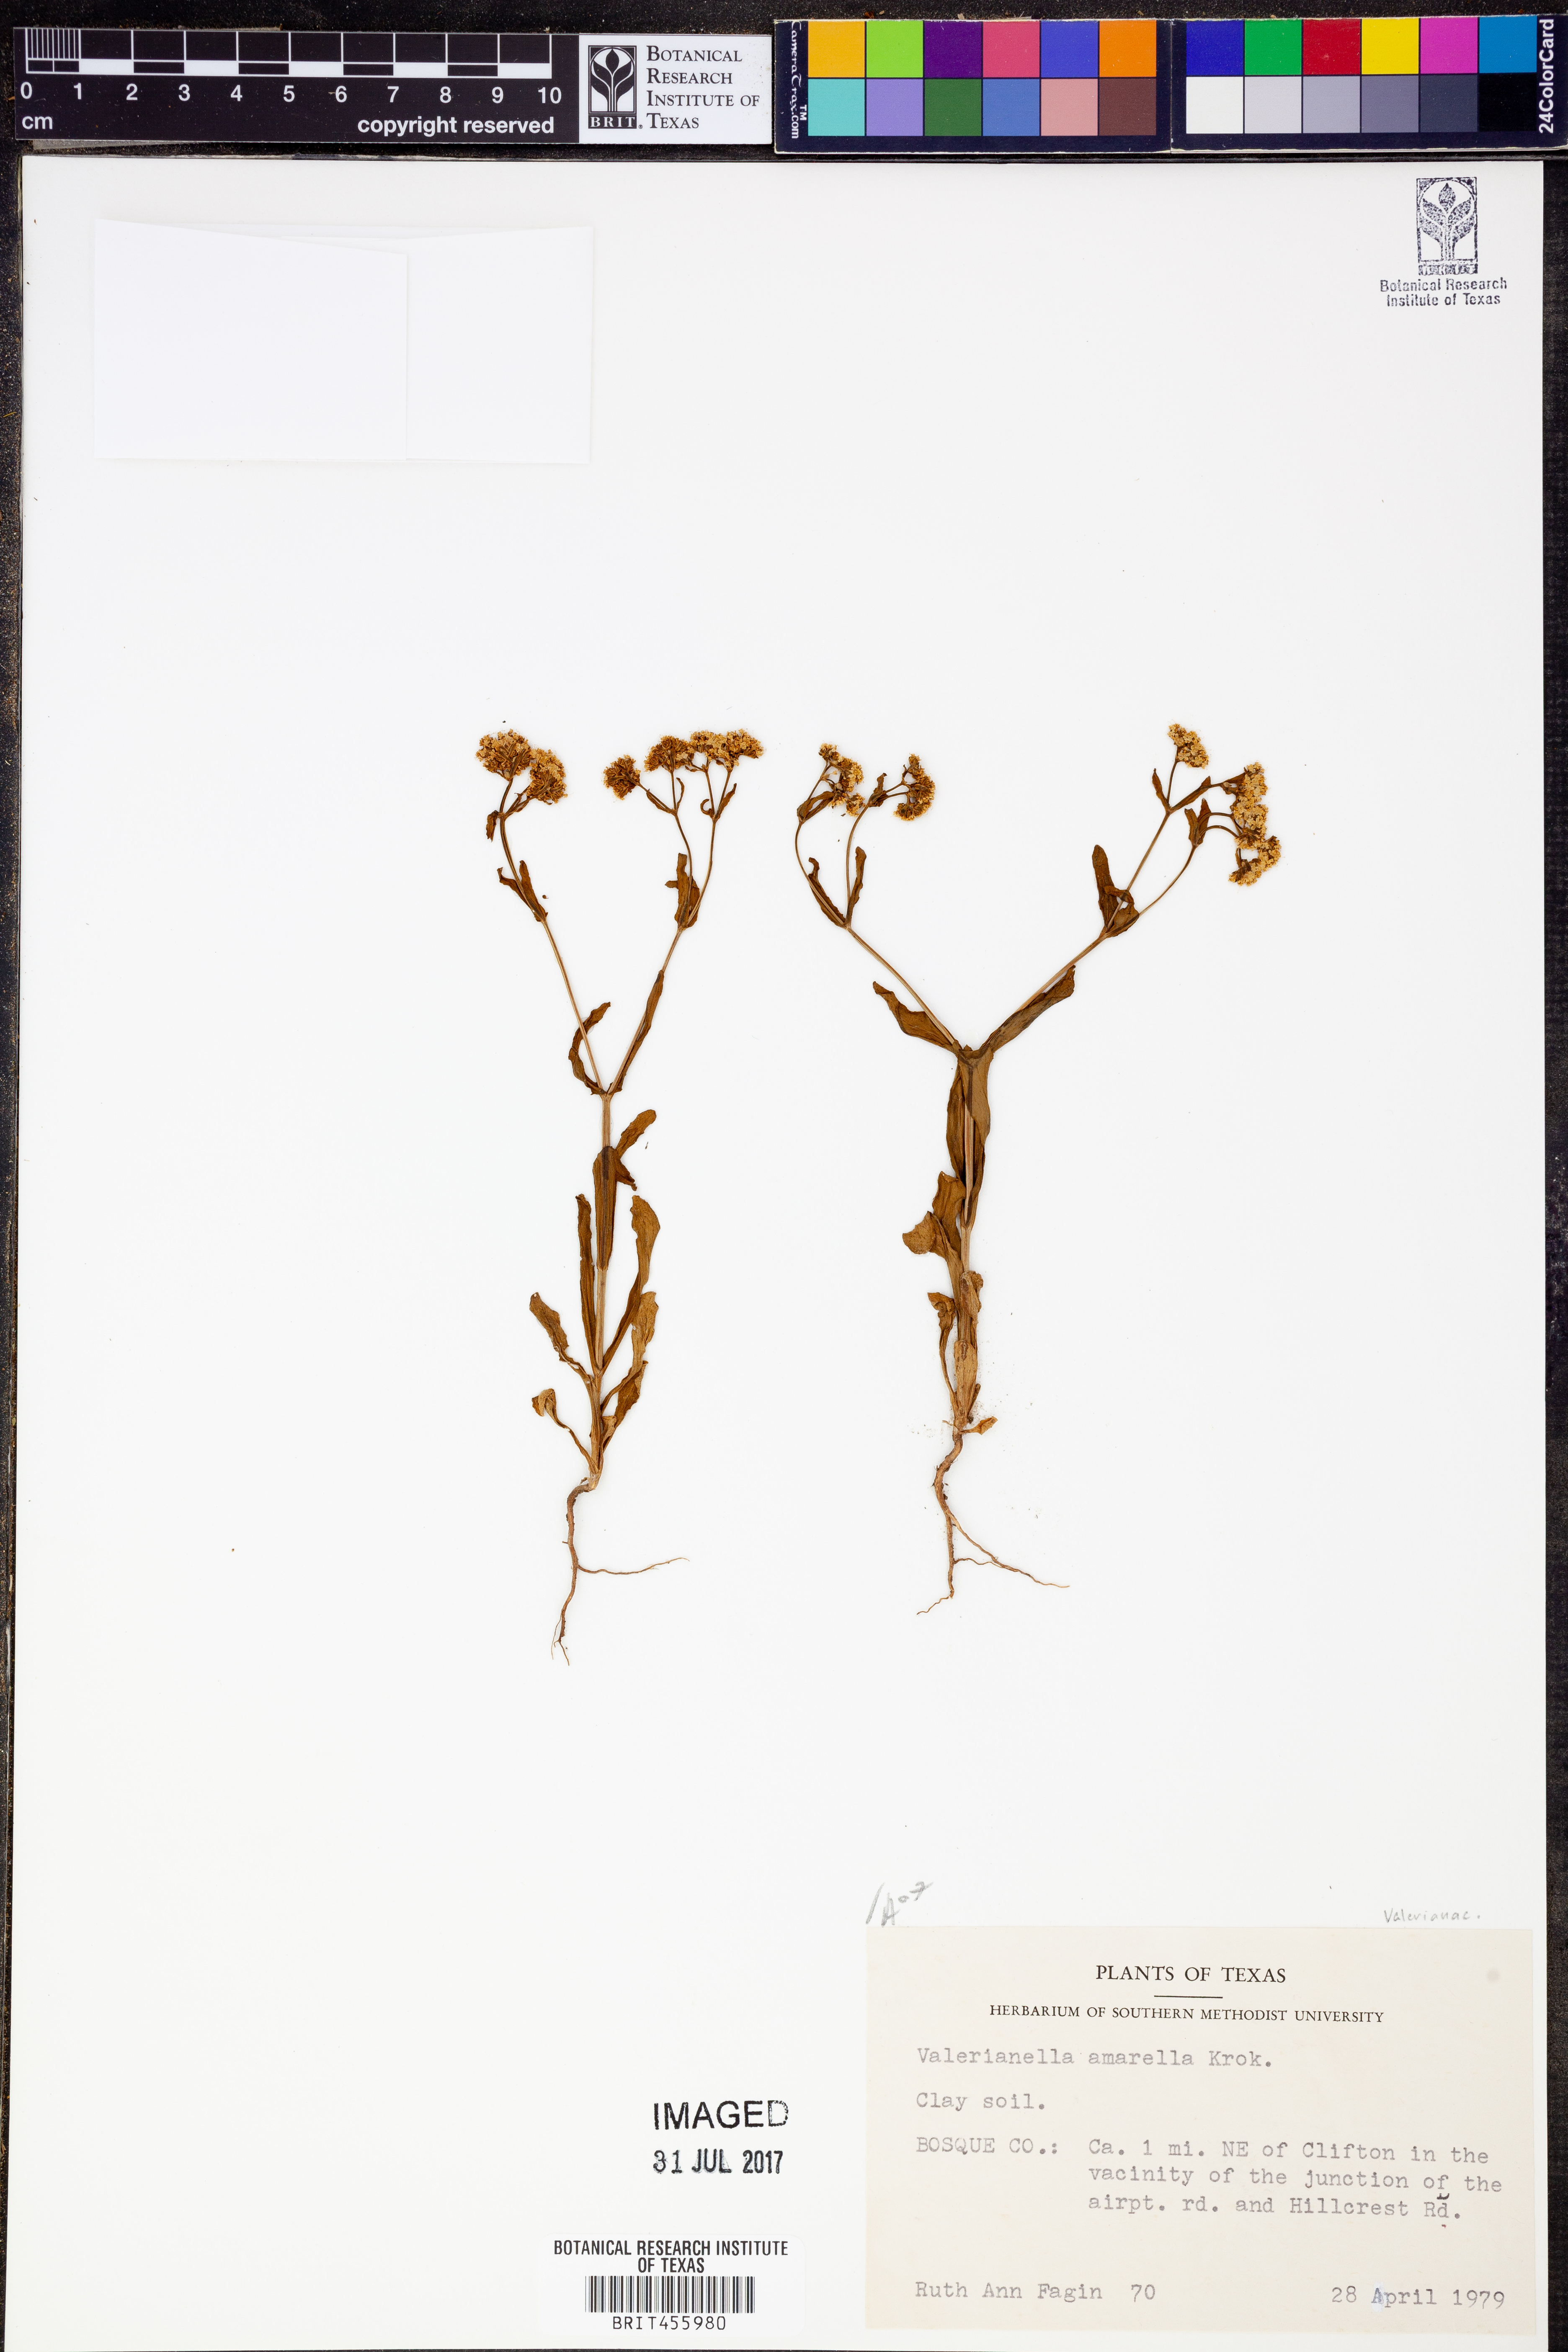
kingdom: Plantae
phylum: Tracheophyta
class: Magnoliopsida
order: Dipsacales
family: Caprifoliaceae
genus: Valerianella
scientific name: Valerianella amarella
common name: Hariy cornsalad
